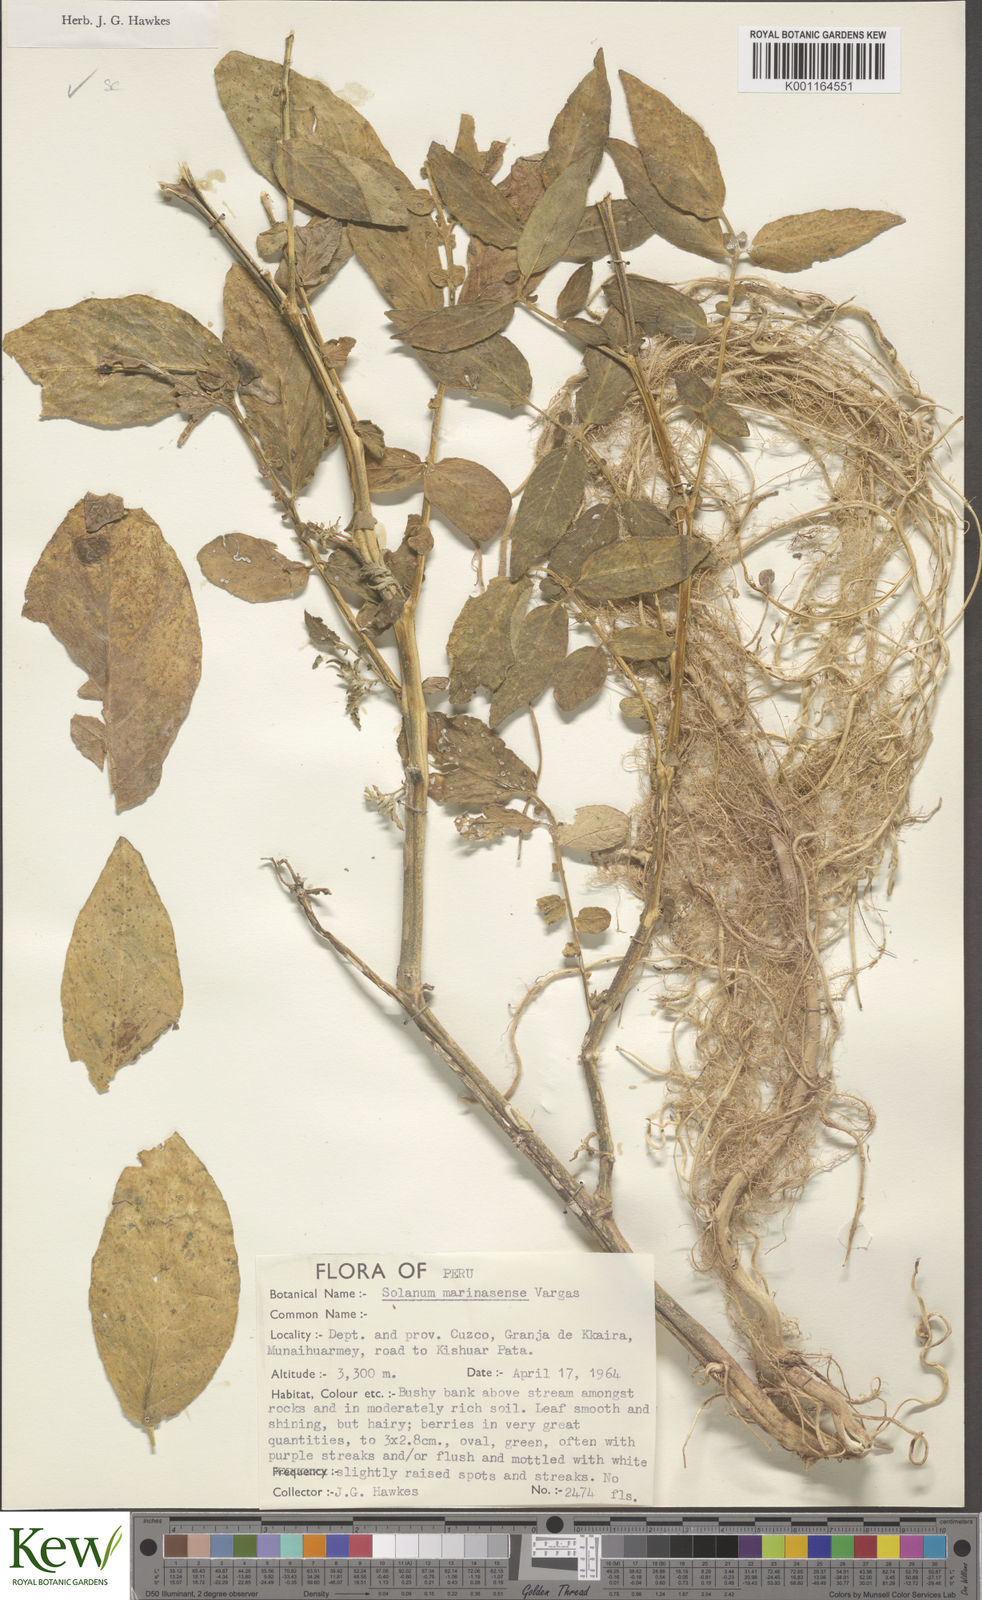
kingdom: Plantae
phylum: Tracheophyta
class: Magnoliopsida
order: Solanales
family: Solanaceae
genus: Solanum
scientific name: Solanum candolleanum
